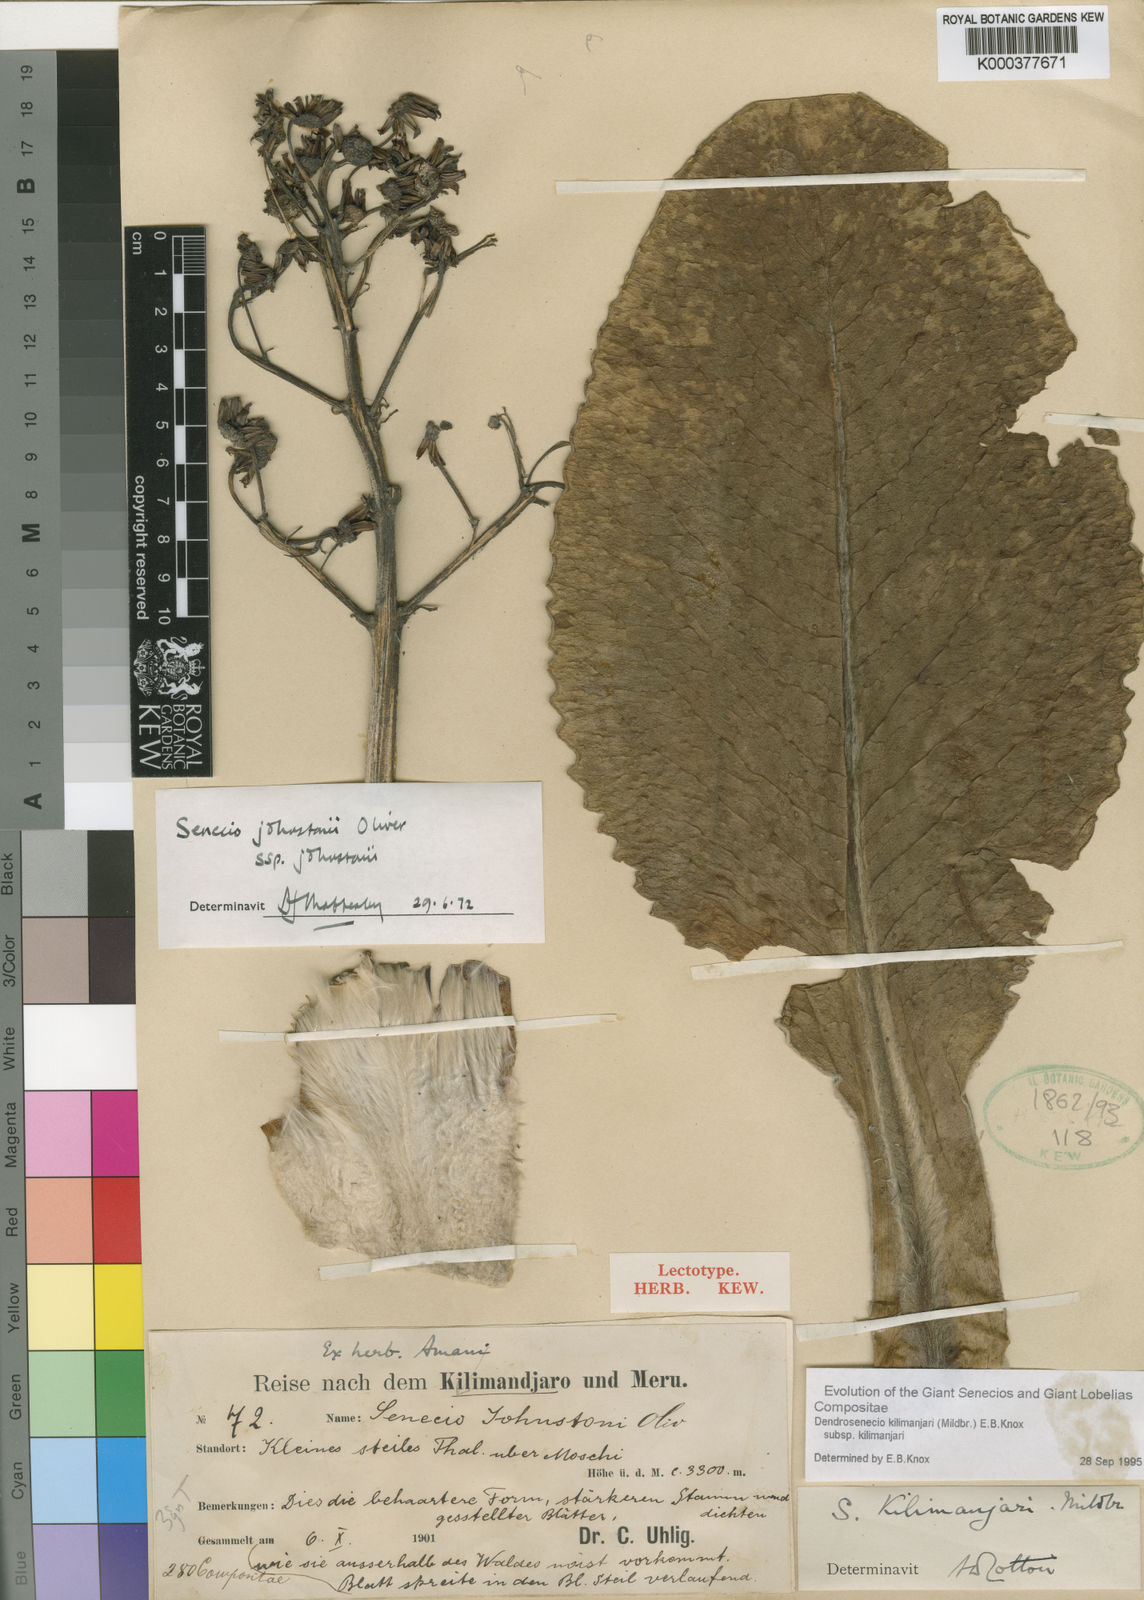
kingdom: Plantae
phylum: Tracheophyta
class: Magnoliopsida
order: Asterales
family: Asteraceae
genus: Dendrosenecio
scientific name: Dendrosenecio kilimanjari
